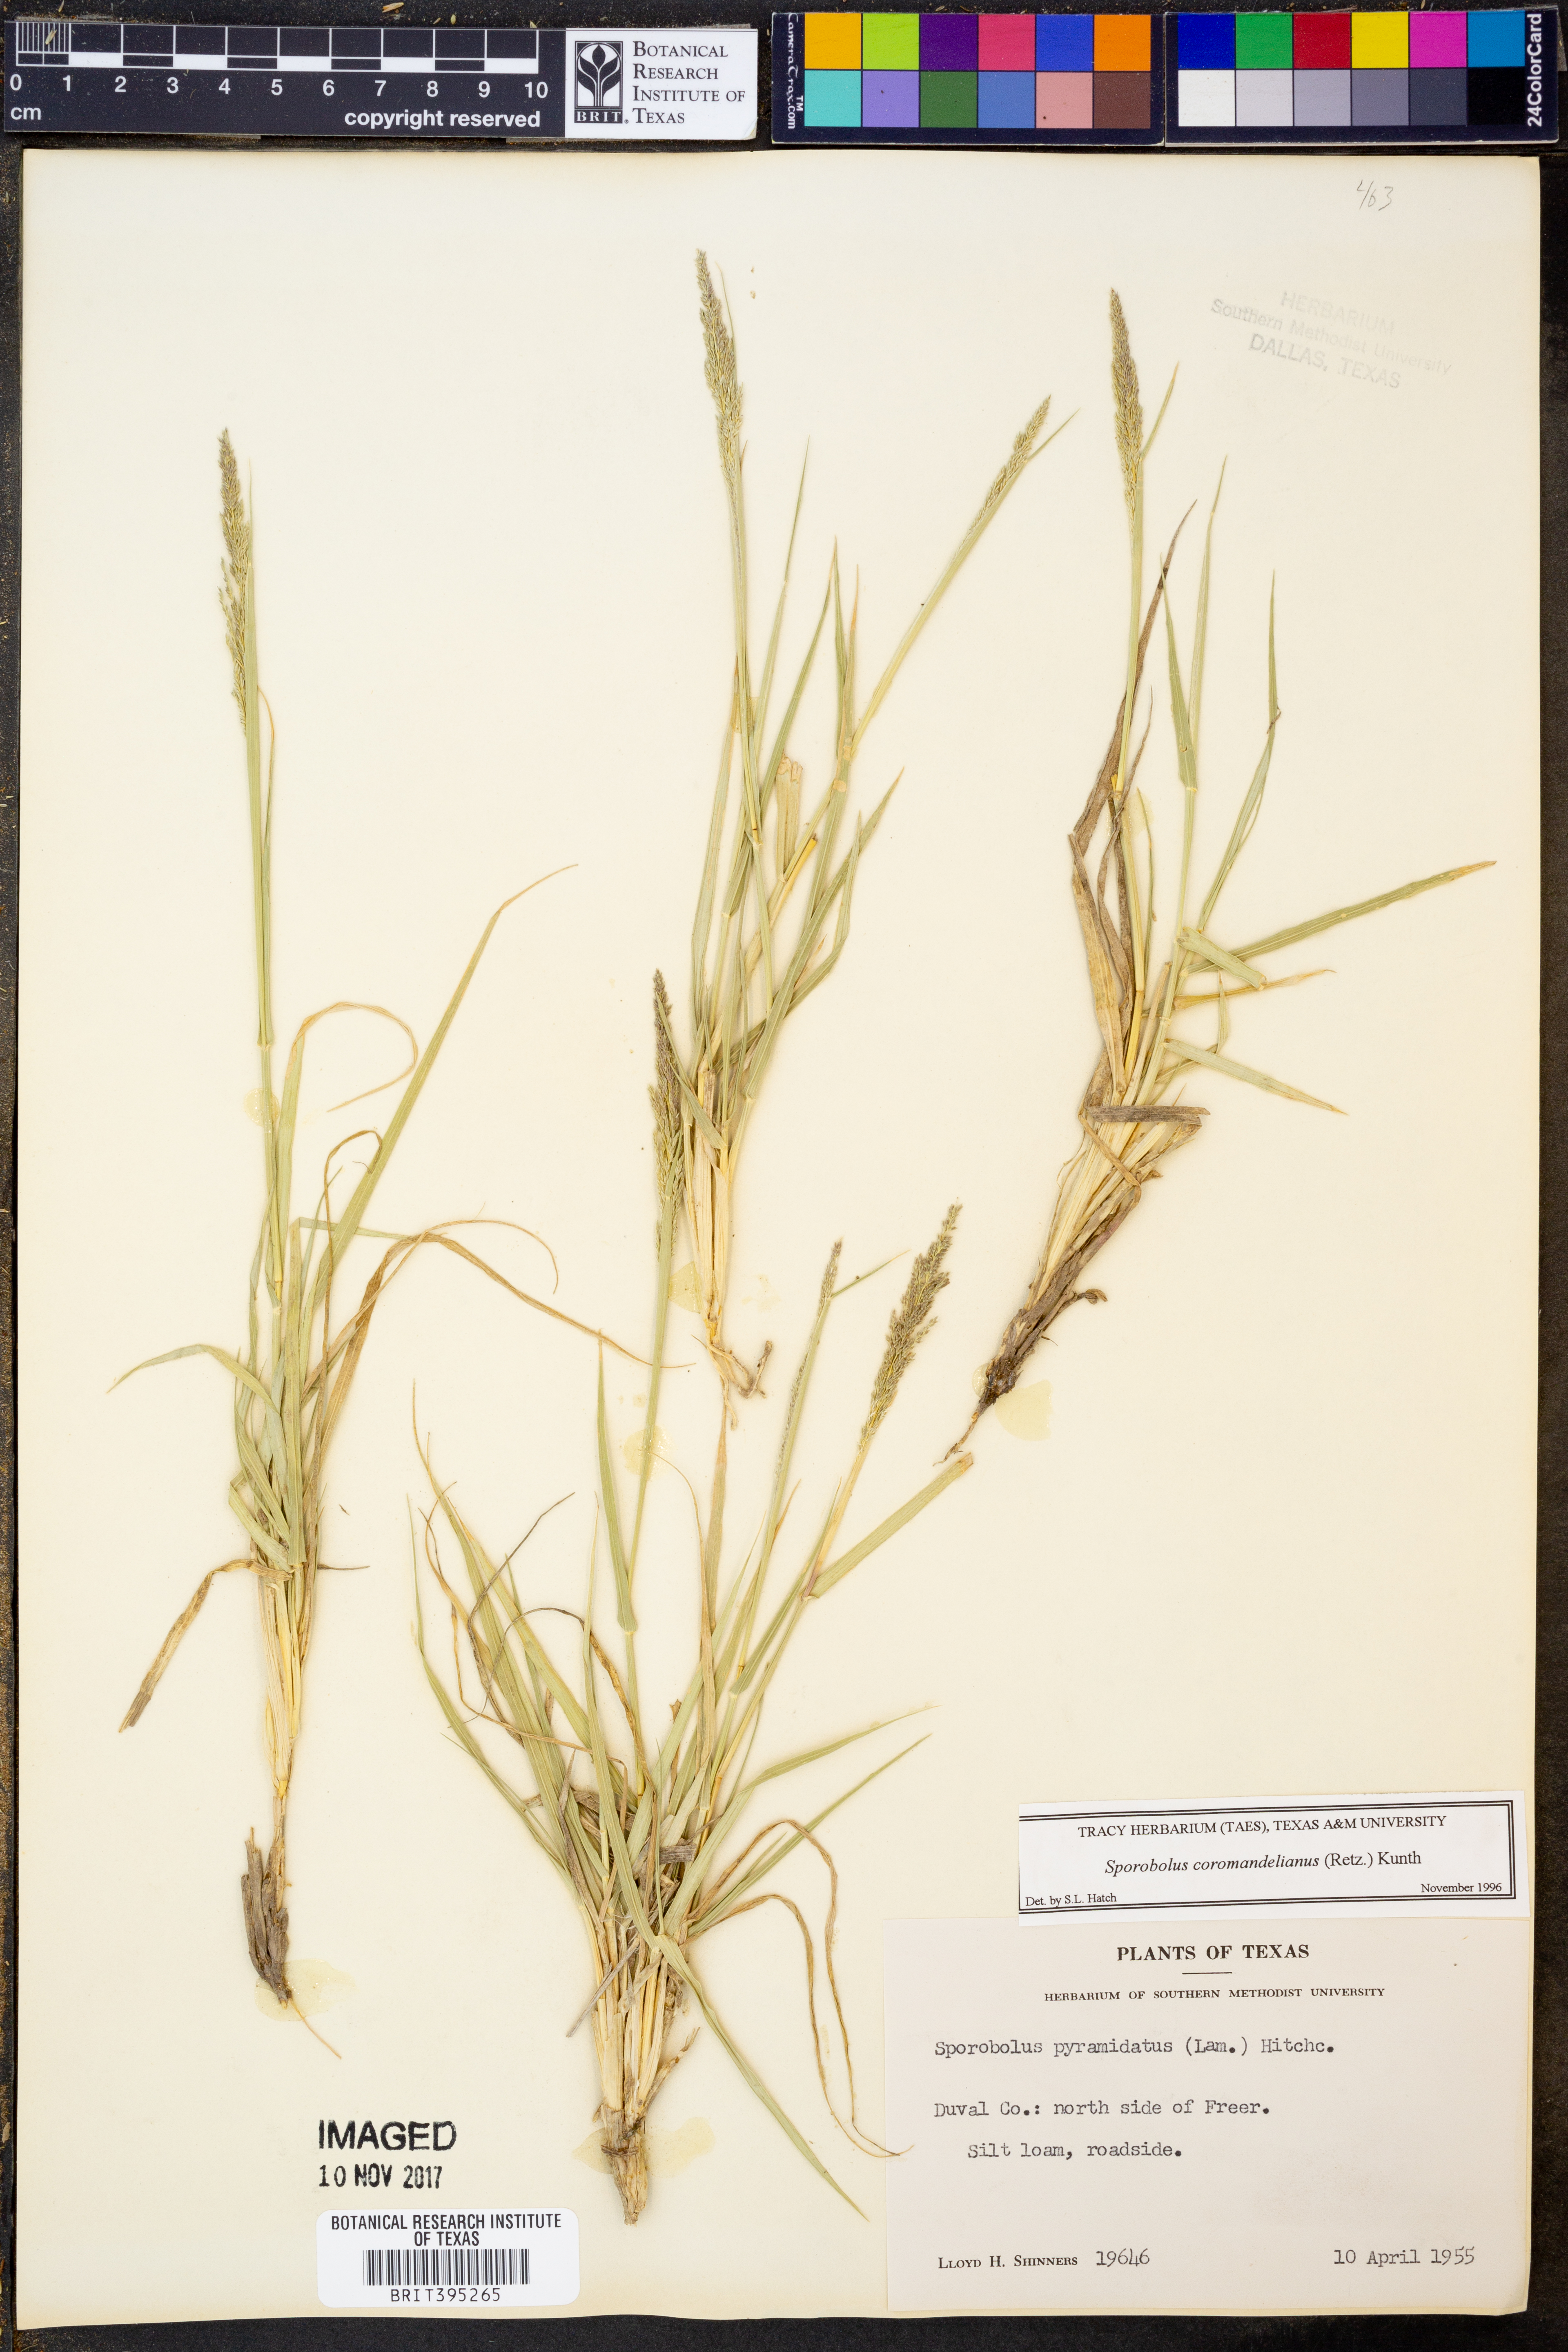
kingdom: Plantae
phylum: Tracheophyta
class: Liliopsida
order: Poales
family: Poaceae
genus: Sporobolus
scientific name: Sporobolus coromandelianus
